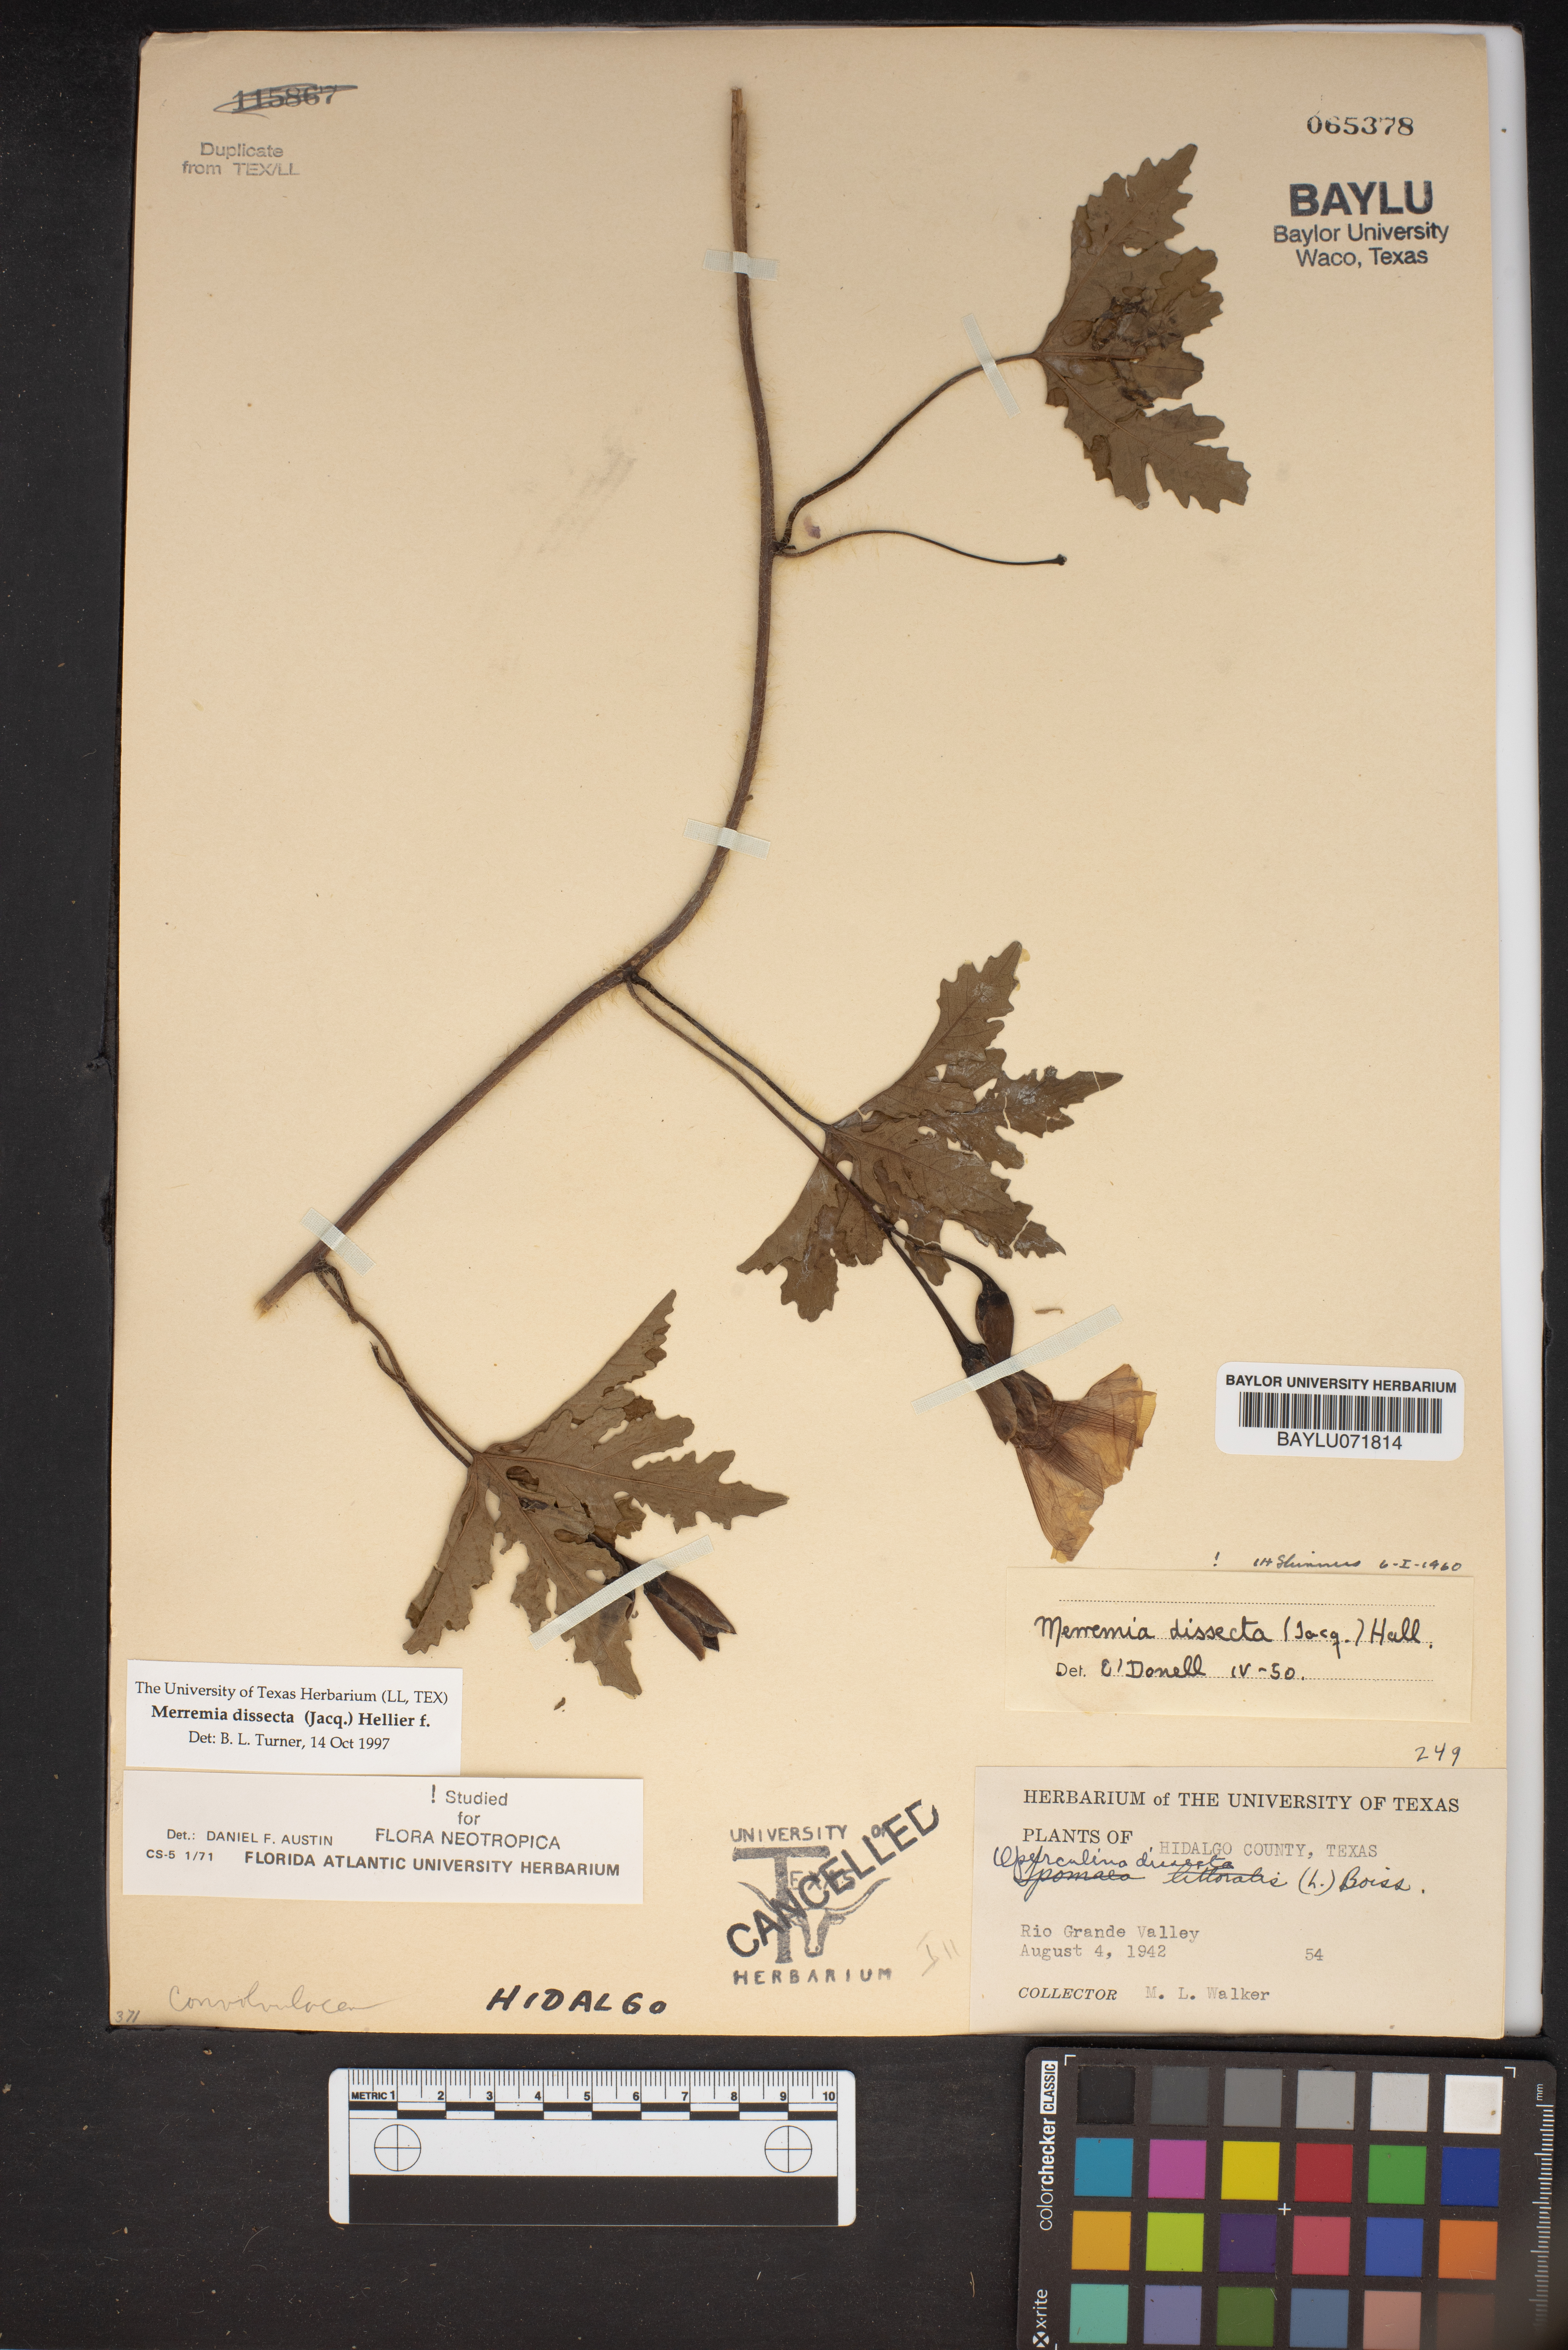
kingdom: Plantae
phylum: Tracheophyta
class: Magnoliopsida
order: Solanales
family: Convolvulaceae
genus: Distimake
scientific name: Distimake dissectus
